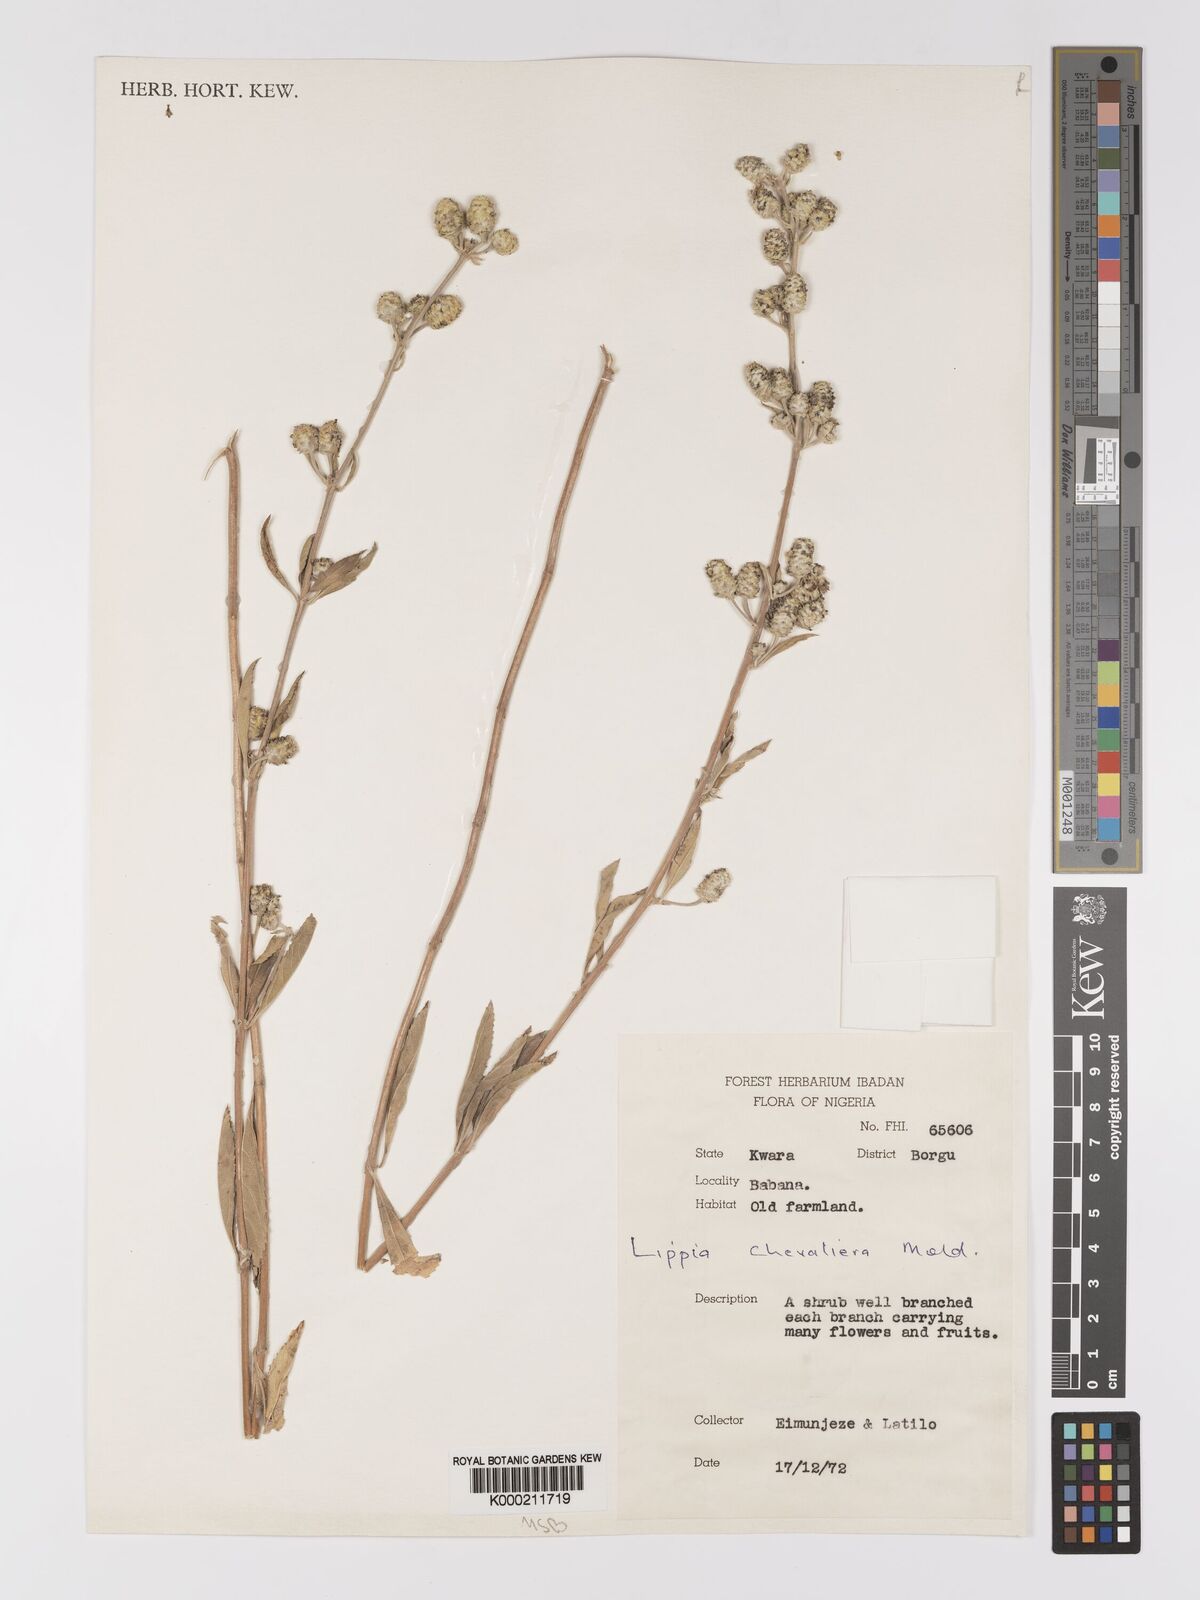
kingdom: Plantae
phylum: Tracheophyta
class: Magnoliopsida
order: Lamiales
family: Verbenaceae
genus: Lippia
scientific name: Lippia chevalieri
